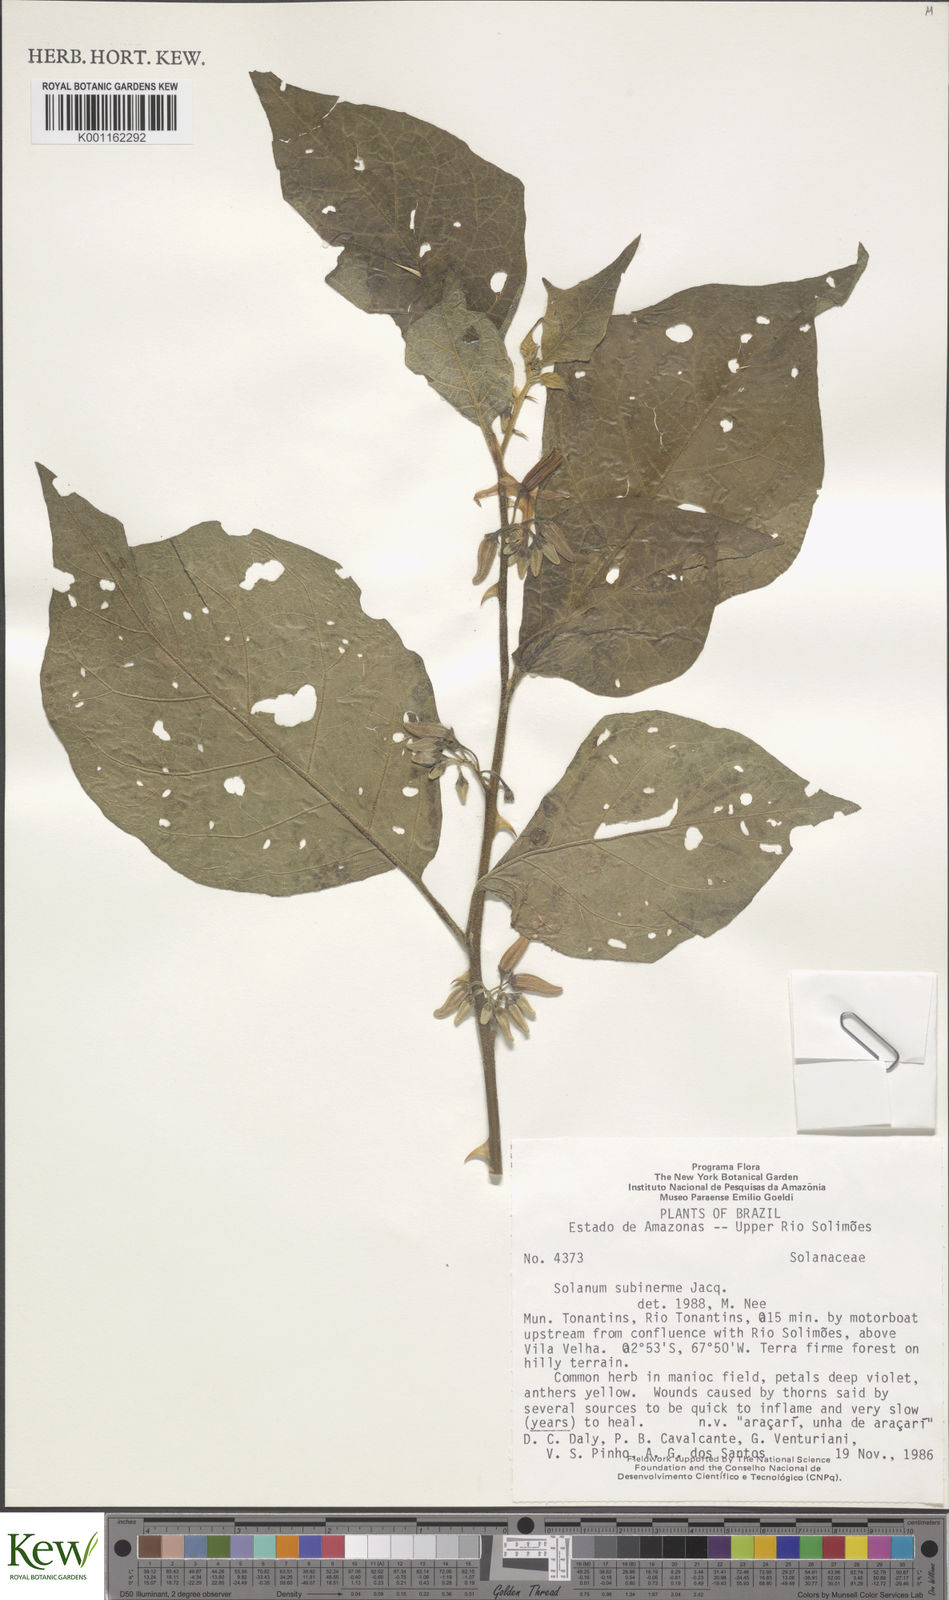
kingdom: Plantae
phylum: Tracheophyta
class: Magnoliopsida
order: Solanales
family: Solanaceae
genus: Solanum
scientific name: Solanum subinerme
